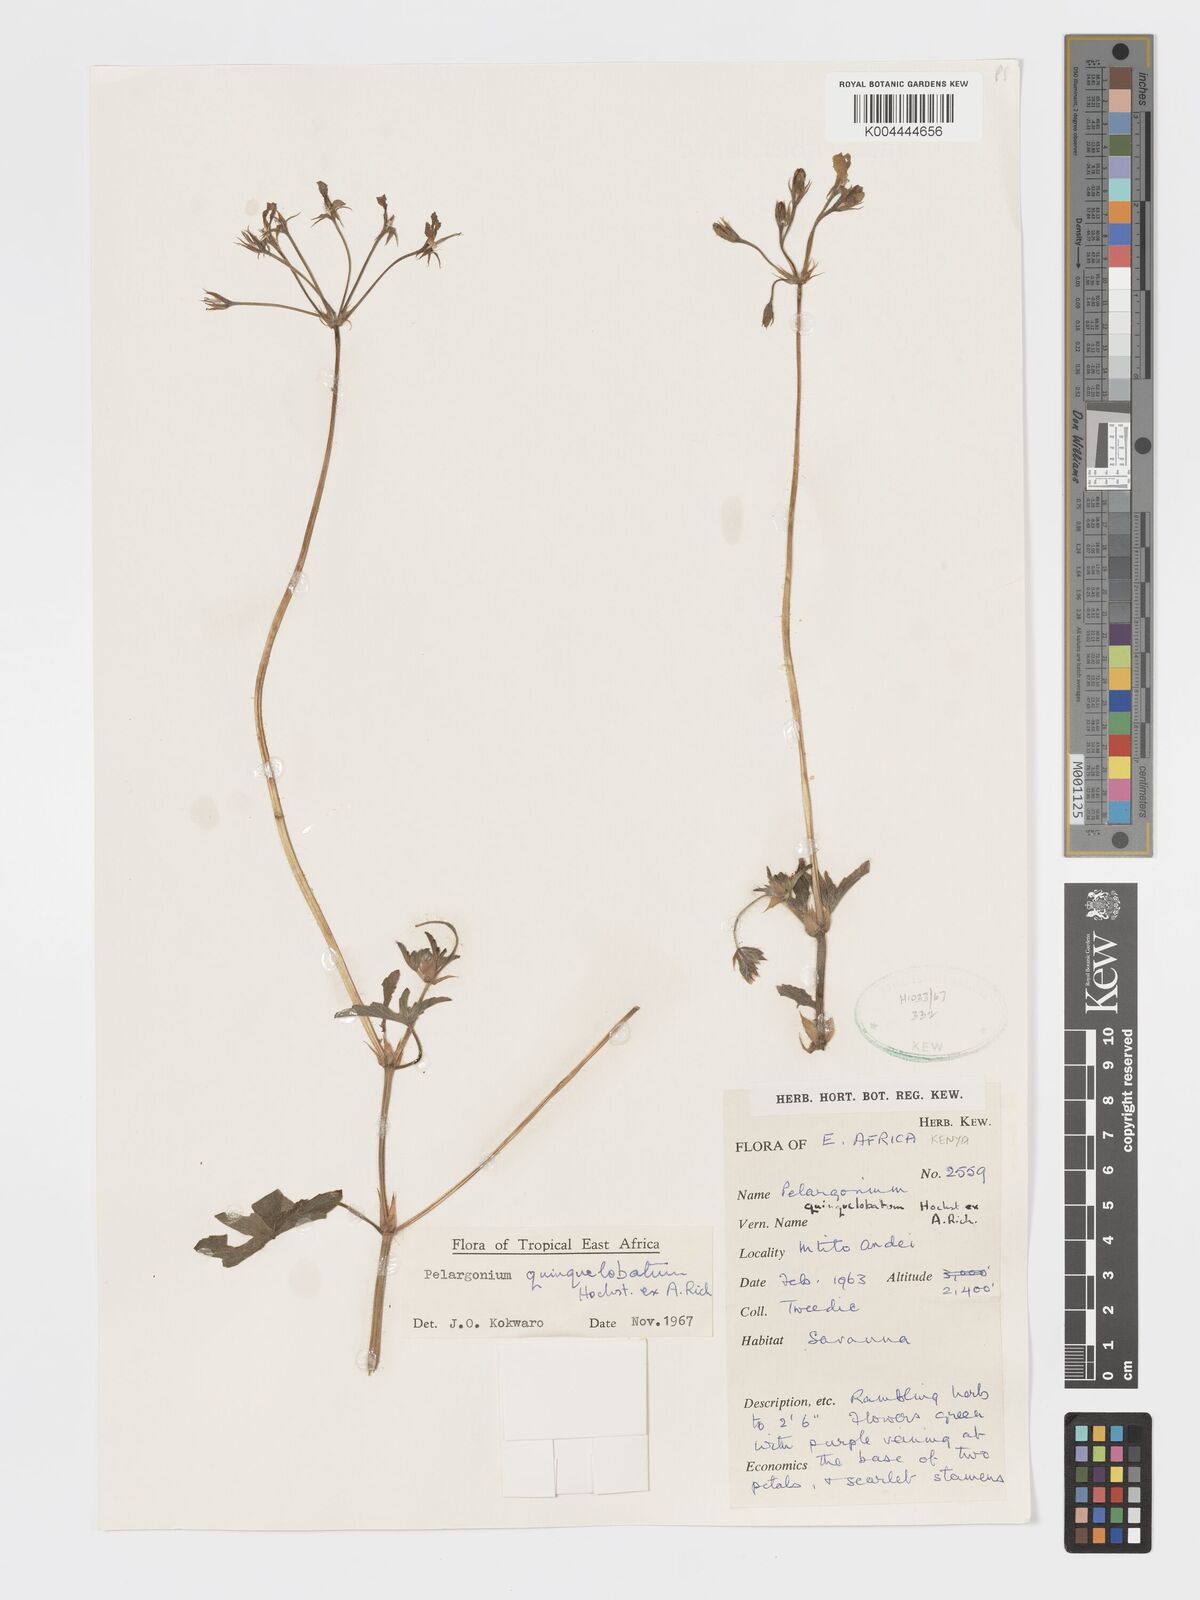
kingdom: Plantae
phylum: Tracheophyta
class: Magnoliopsida
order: Geraniales
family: Geraniaceae
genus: Pelargonium
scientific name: Pelargonium quinquelobatum
